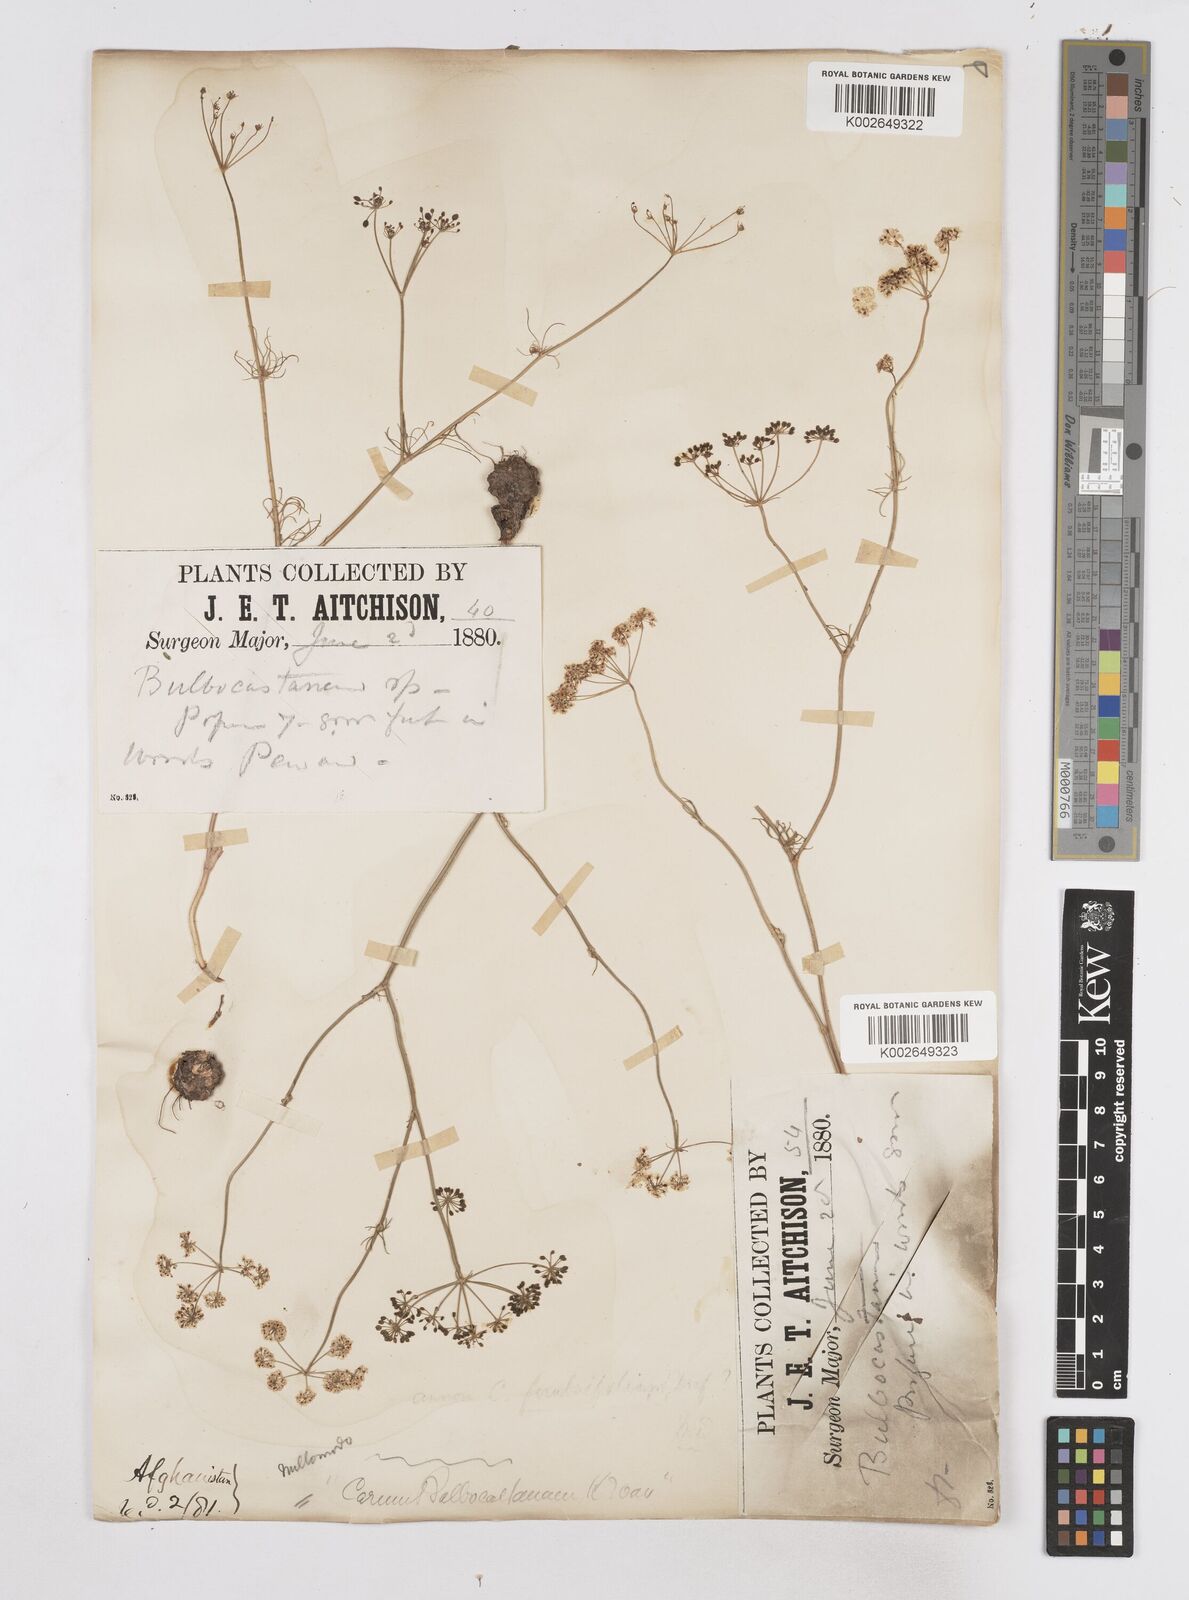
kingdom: Plantae
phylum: Tracheophyta
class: Magnoliopsida
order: Apiales
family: Apiaceae
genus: Elwendia
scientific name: Elwendia persica
